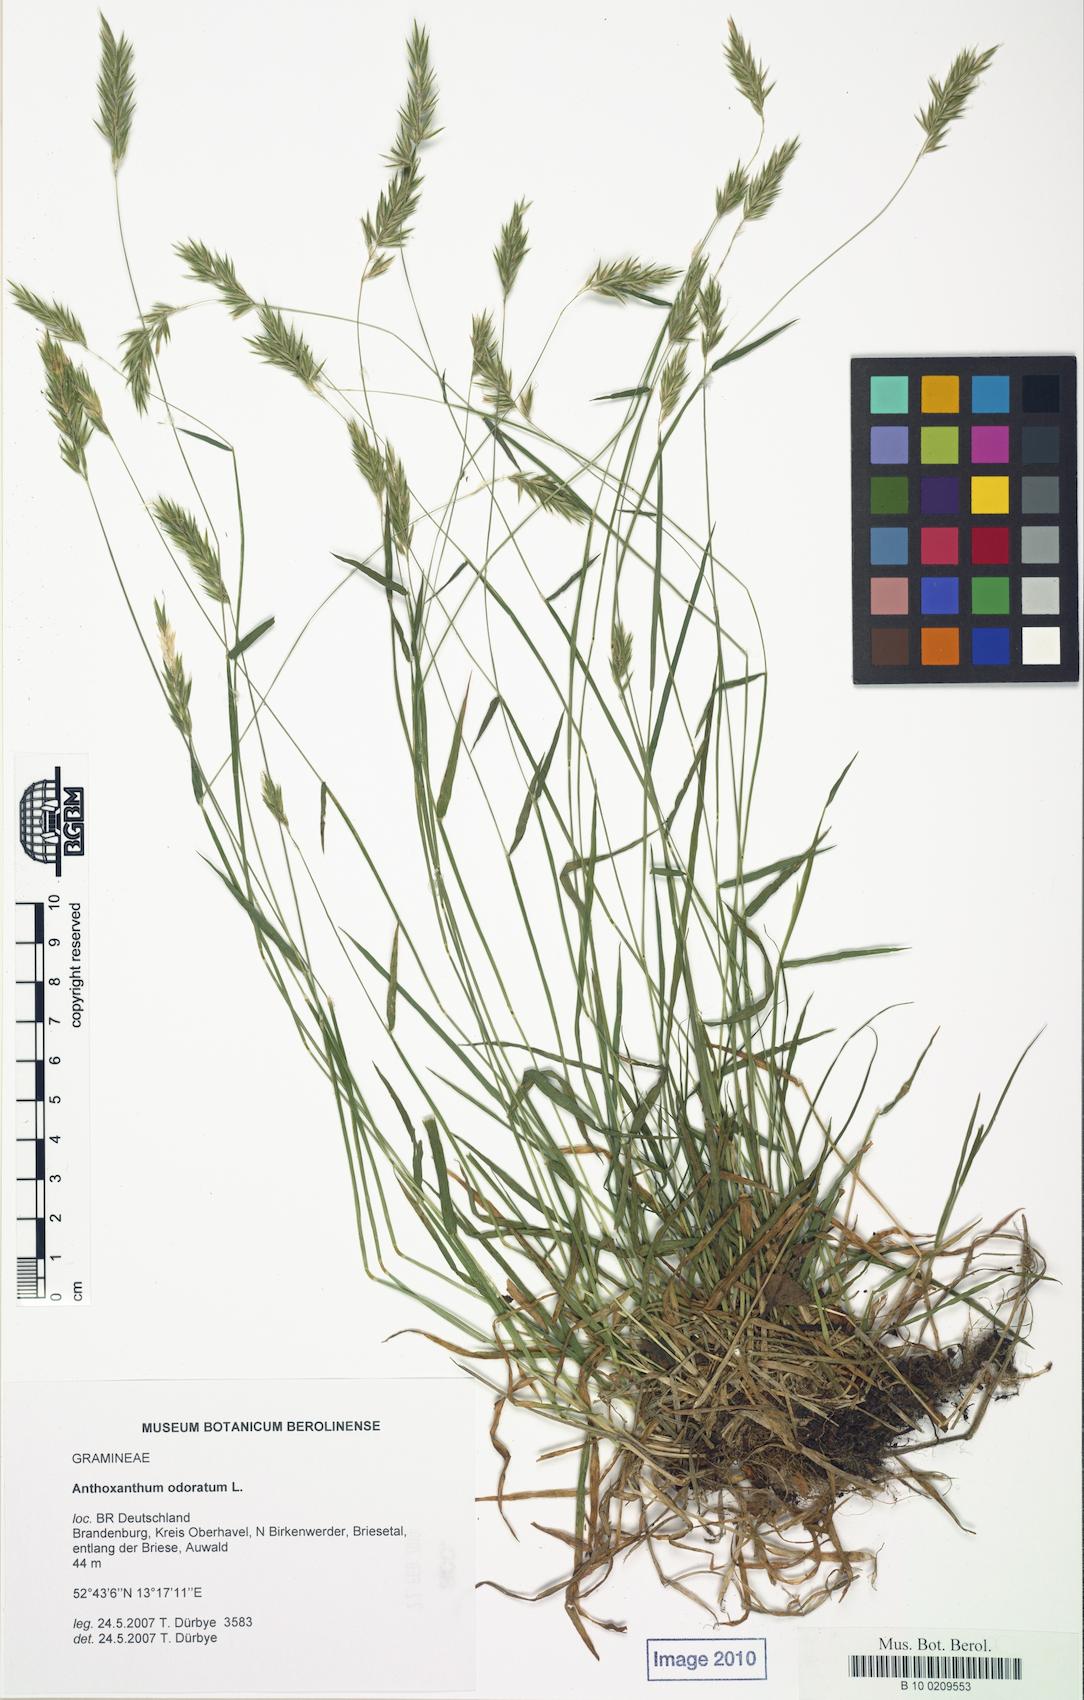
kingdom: Plantae
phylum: Tracheophyta
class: Liliopsida
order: Poales
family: Poaceae
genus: Anthoxanthum
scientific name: Anthoxanthum odoratum
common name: Sweet vernalgrass
